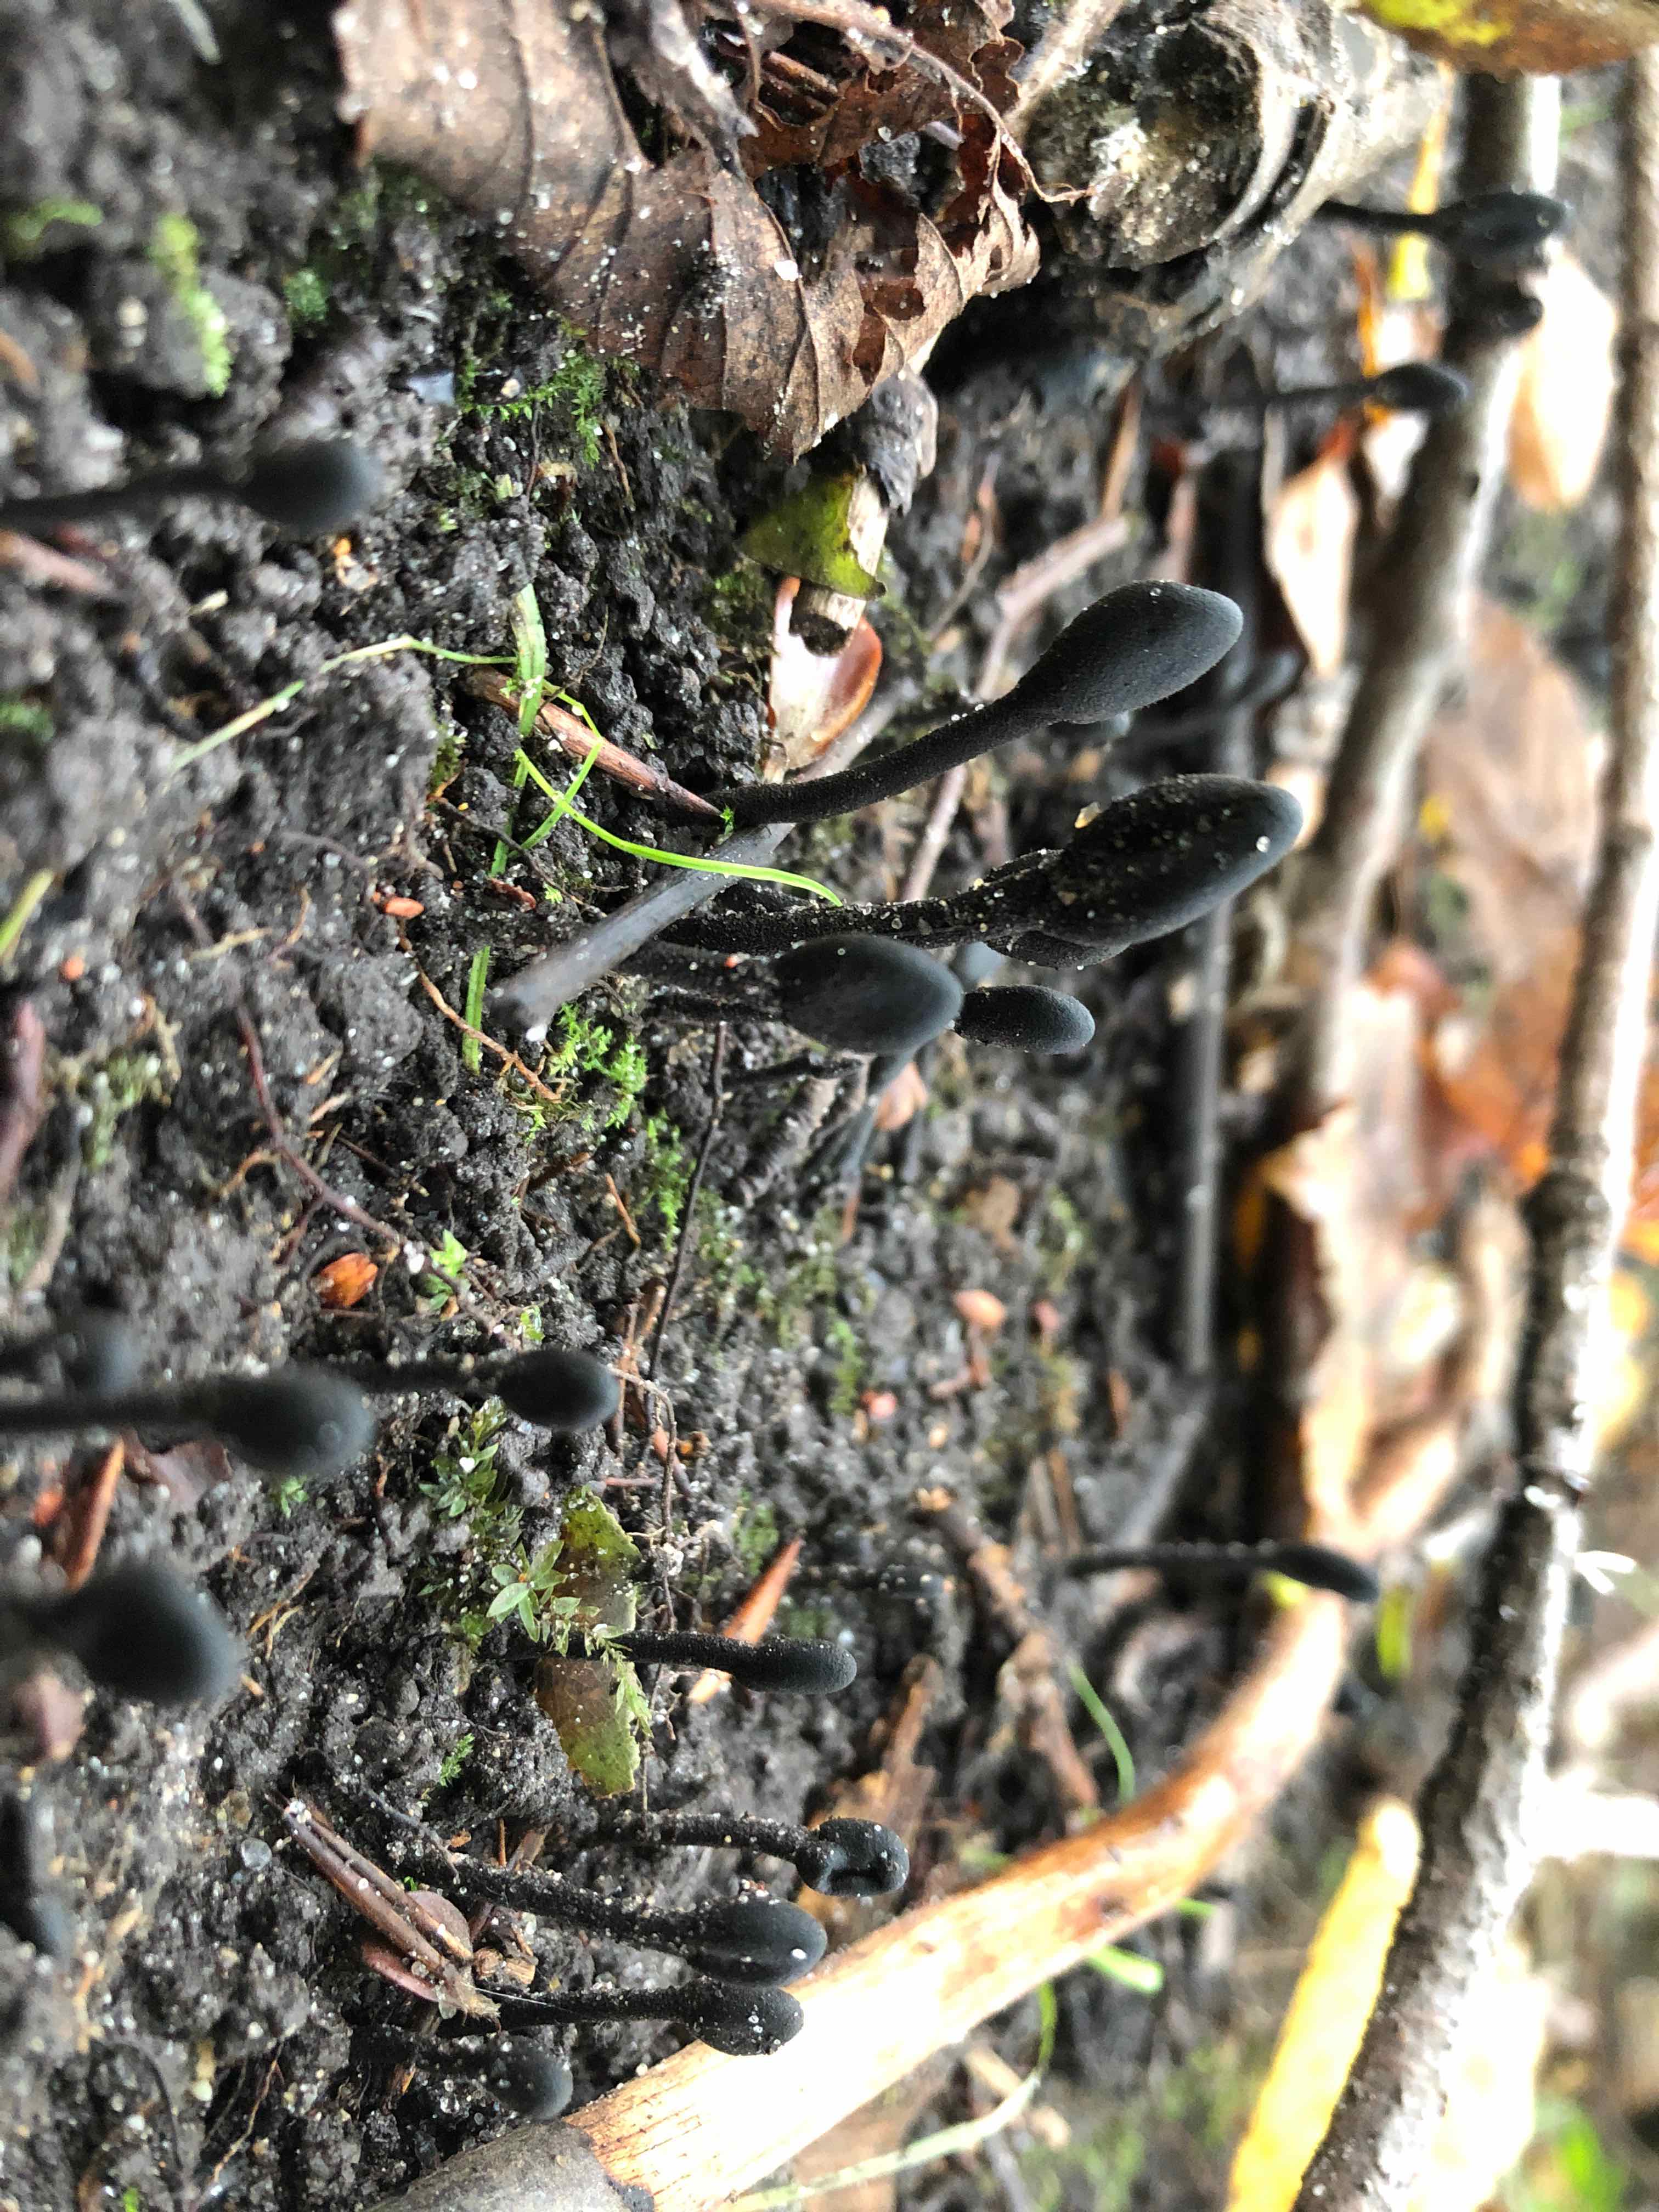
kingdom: Fungi
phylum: Ascomycota
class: Geoglossomycetes
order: Geoglossales
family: Geoglossaceae
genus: Trichoglossum
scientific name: Trichoglossum hirsutum
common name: håret jordtunge
